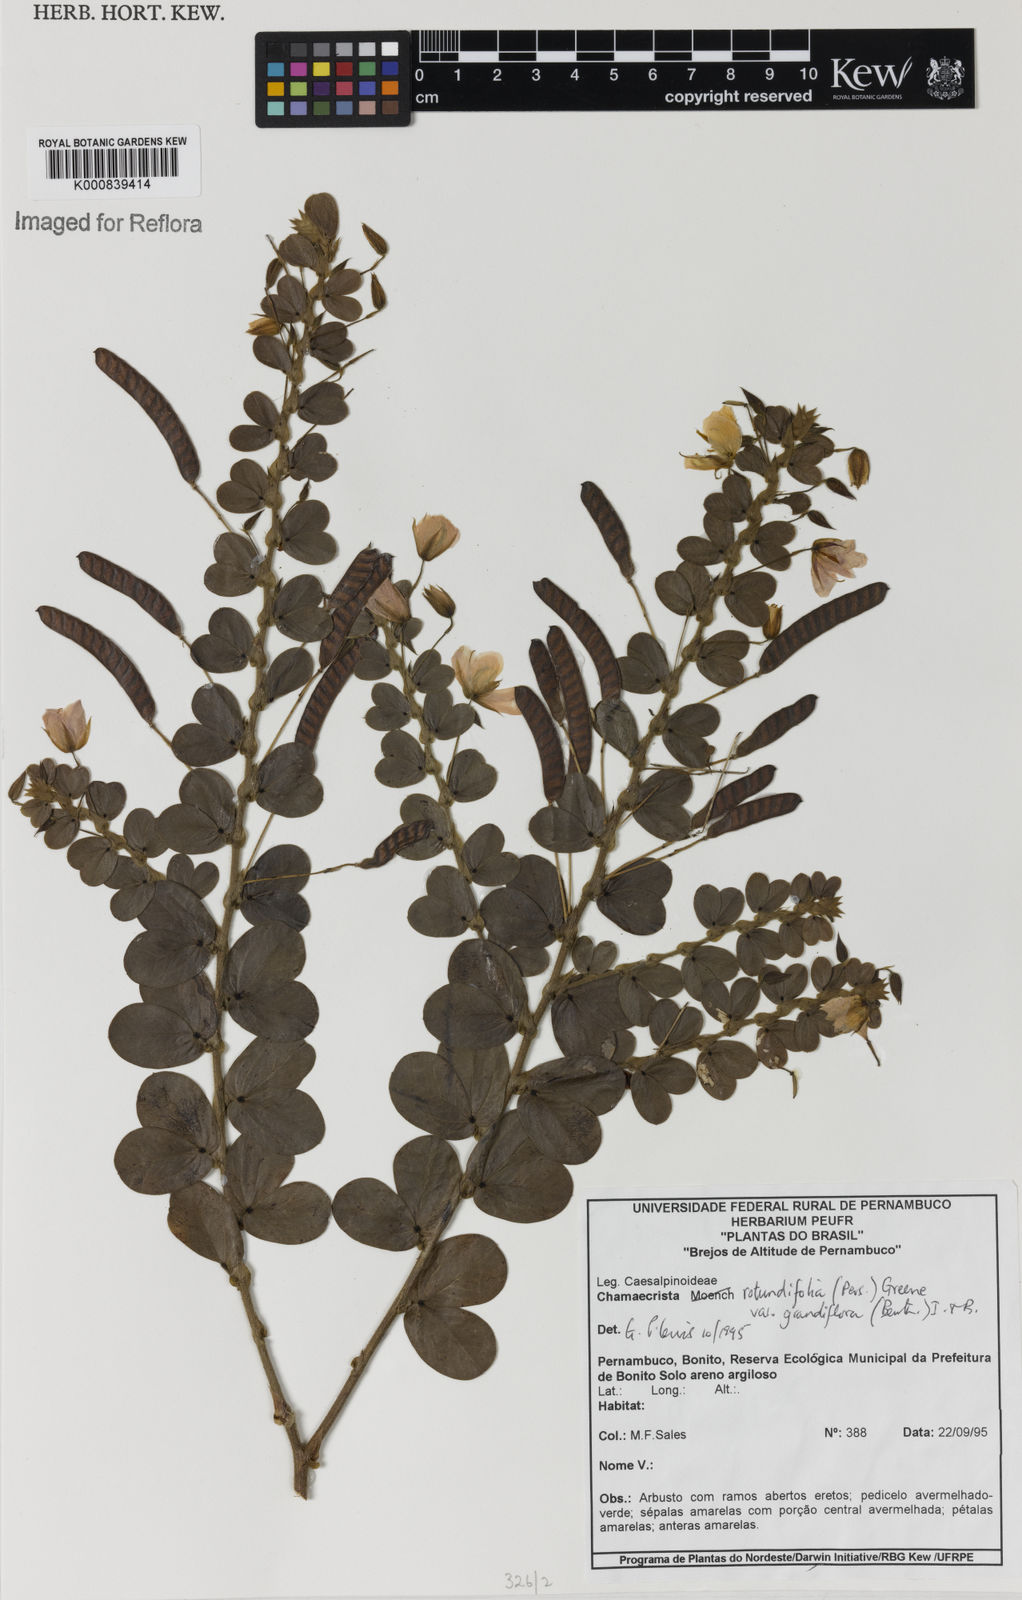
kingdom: Plantae
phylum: Tracheophyta
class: Magnoliopsida
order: Fabales
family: Fabaceae
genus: Chamaecrista
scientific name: Chamaecrista rotundifolia
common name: Round-leaf cassia
